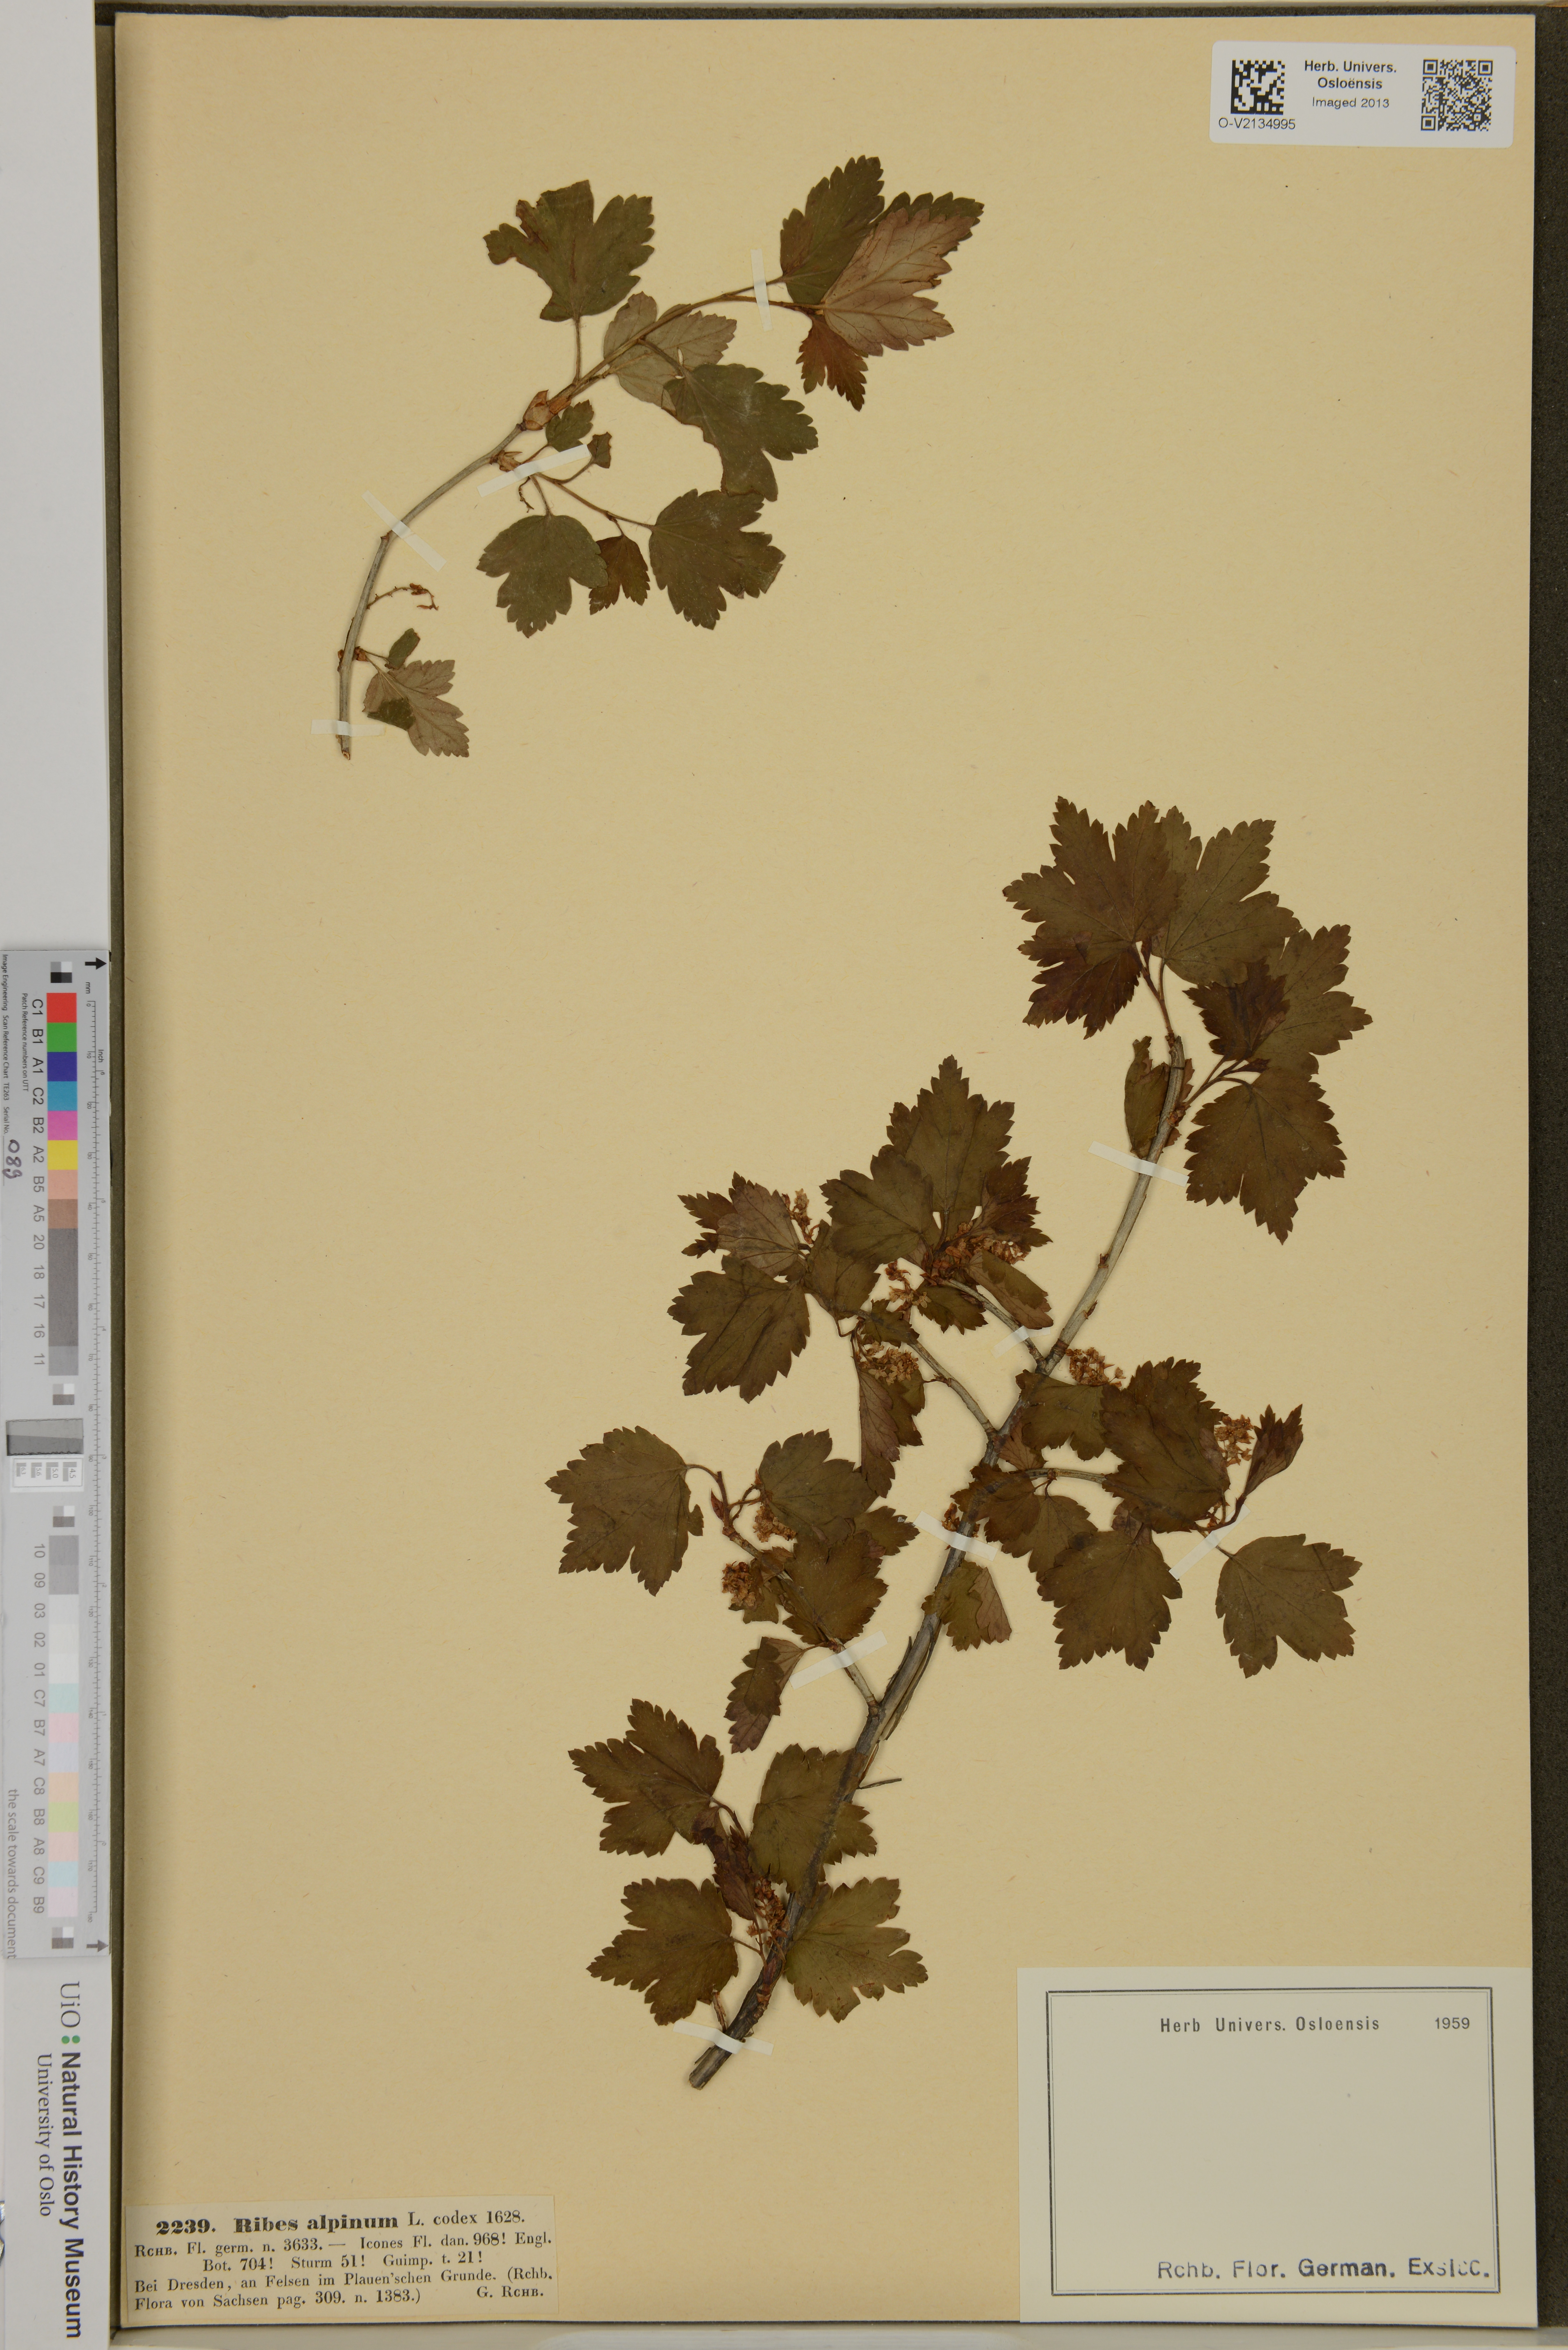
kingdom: Plantae
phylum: Tracheophyta
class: Magnoliopsida
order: Saxifragales
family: Grossulariaceae
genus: Ribes
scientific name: Ribes alpinum
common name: Alpine currant
